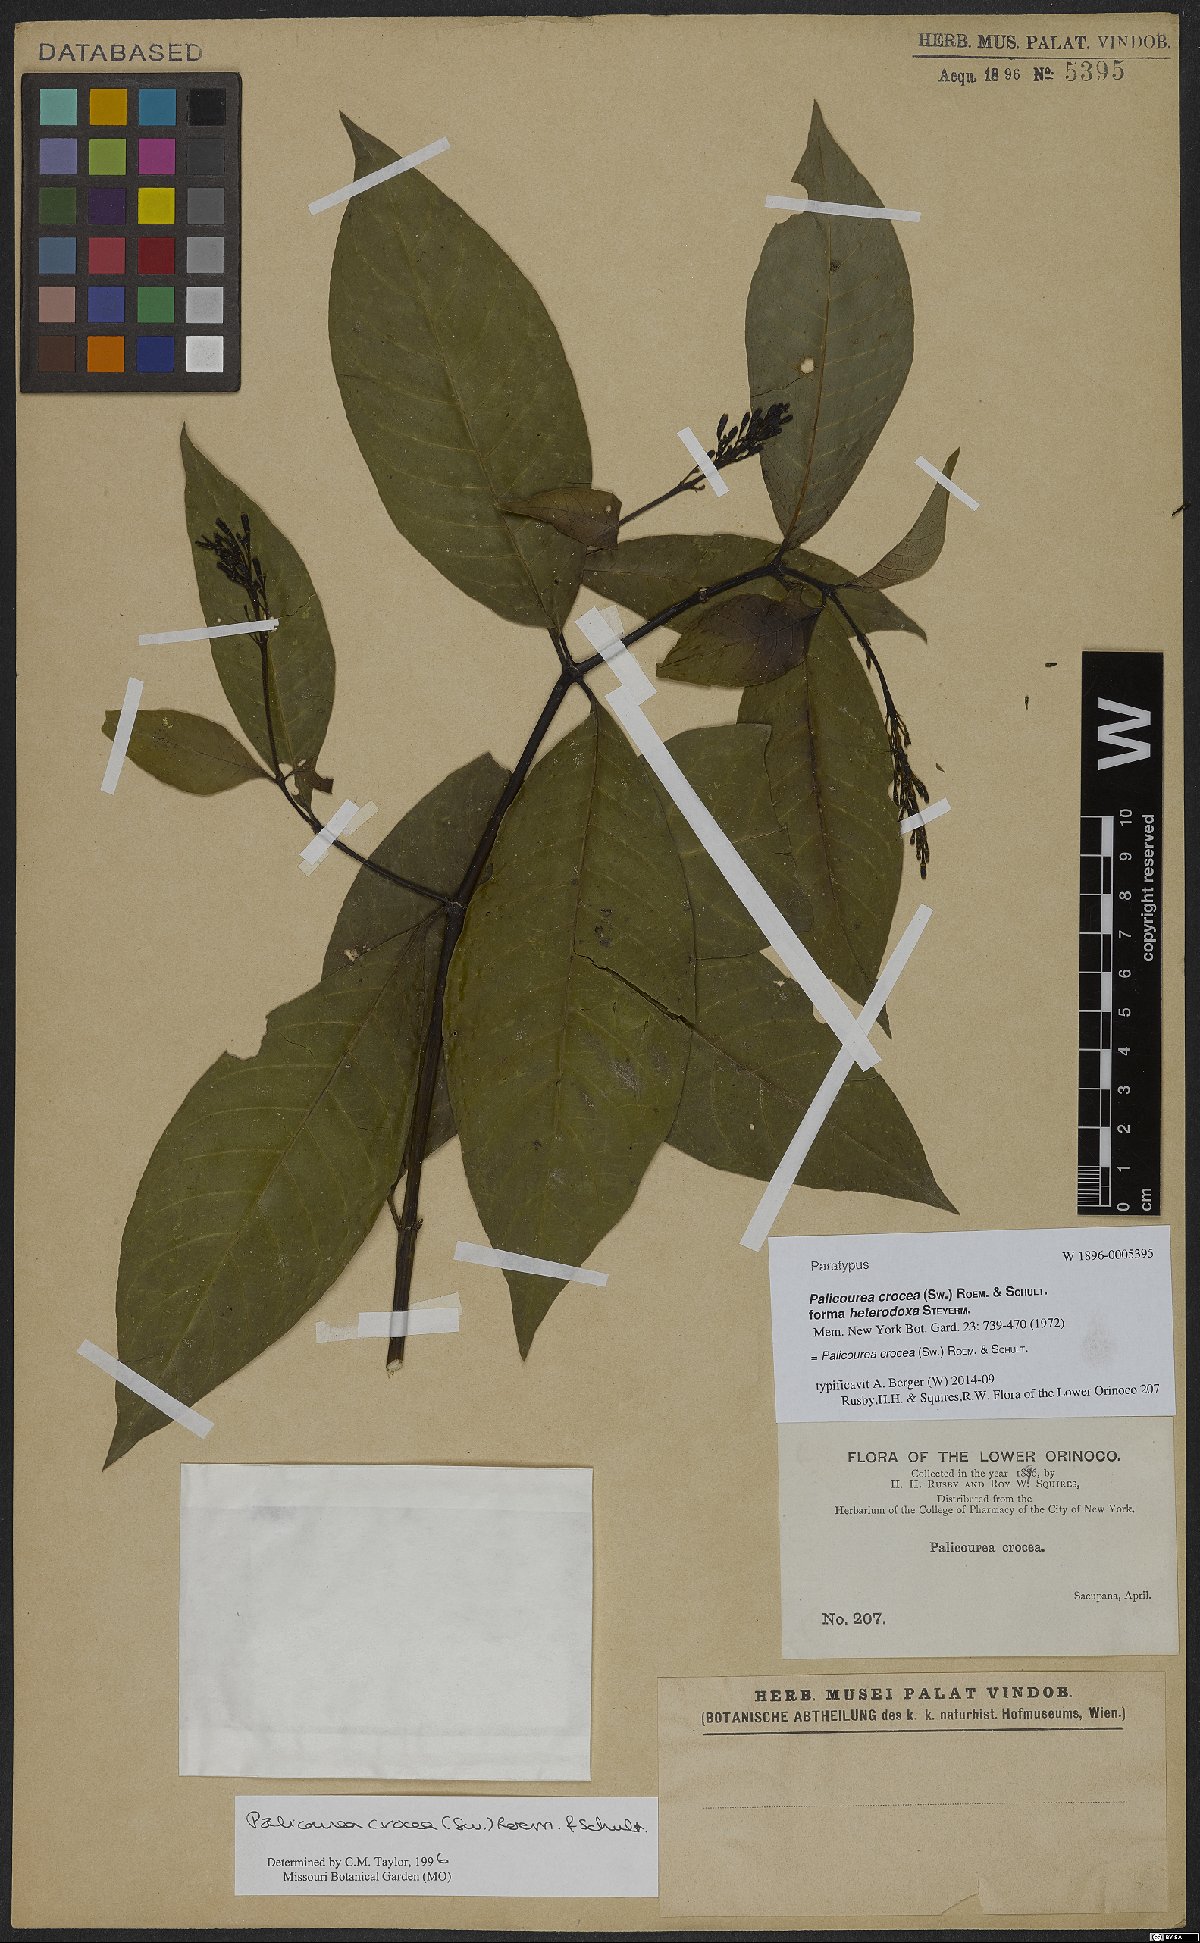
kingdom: Plantae
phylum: Tracheophyta
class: Magnoliopsida
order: Gentianales
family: Rubiaceae
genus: Palicourea
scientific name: Palicourea crocea
